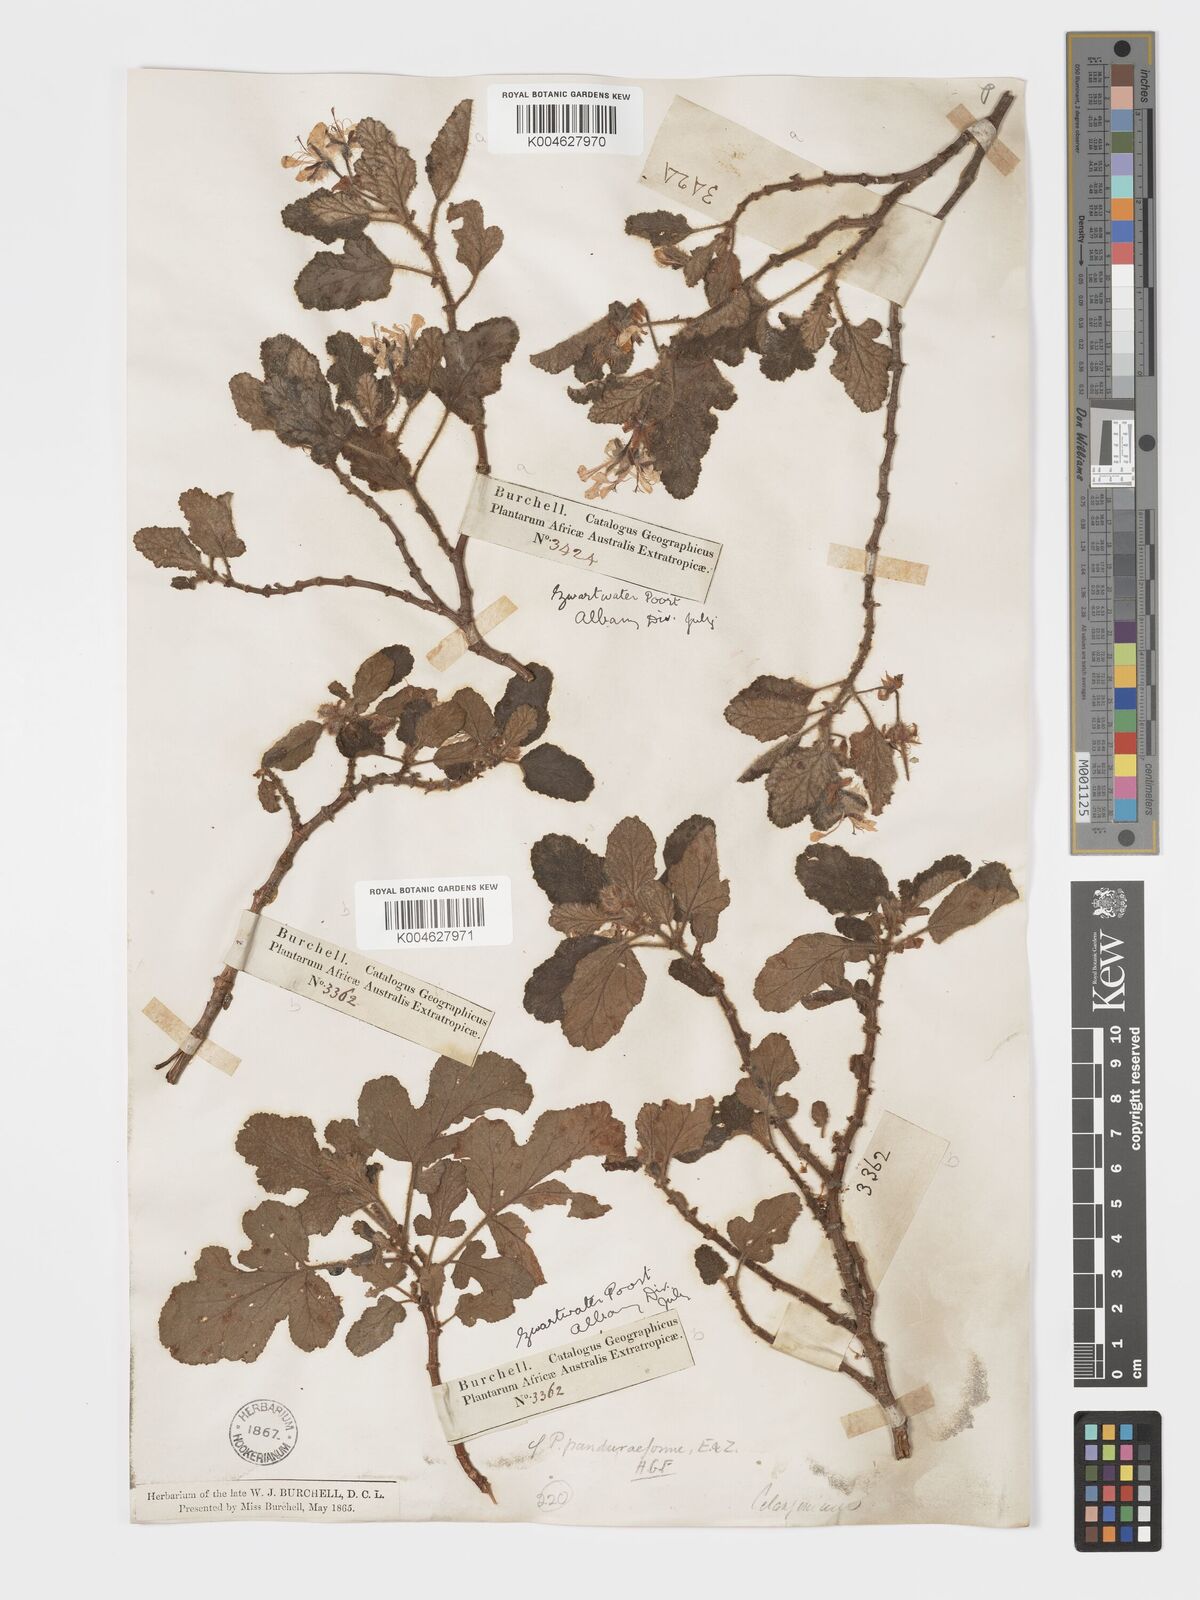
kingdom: Plantae
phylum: Tracheophyta
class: Magnoliopsida
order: Geraniales
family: Geraniaceae
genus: Pelargonium
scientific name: Pelargonium panduriforme
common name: Oakleaf garden geranium
